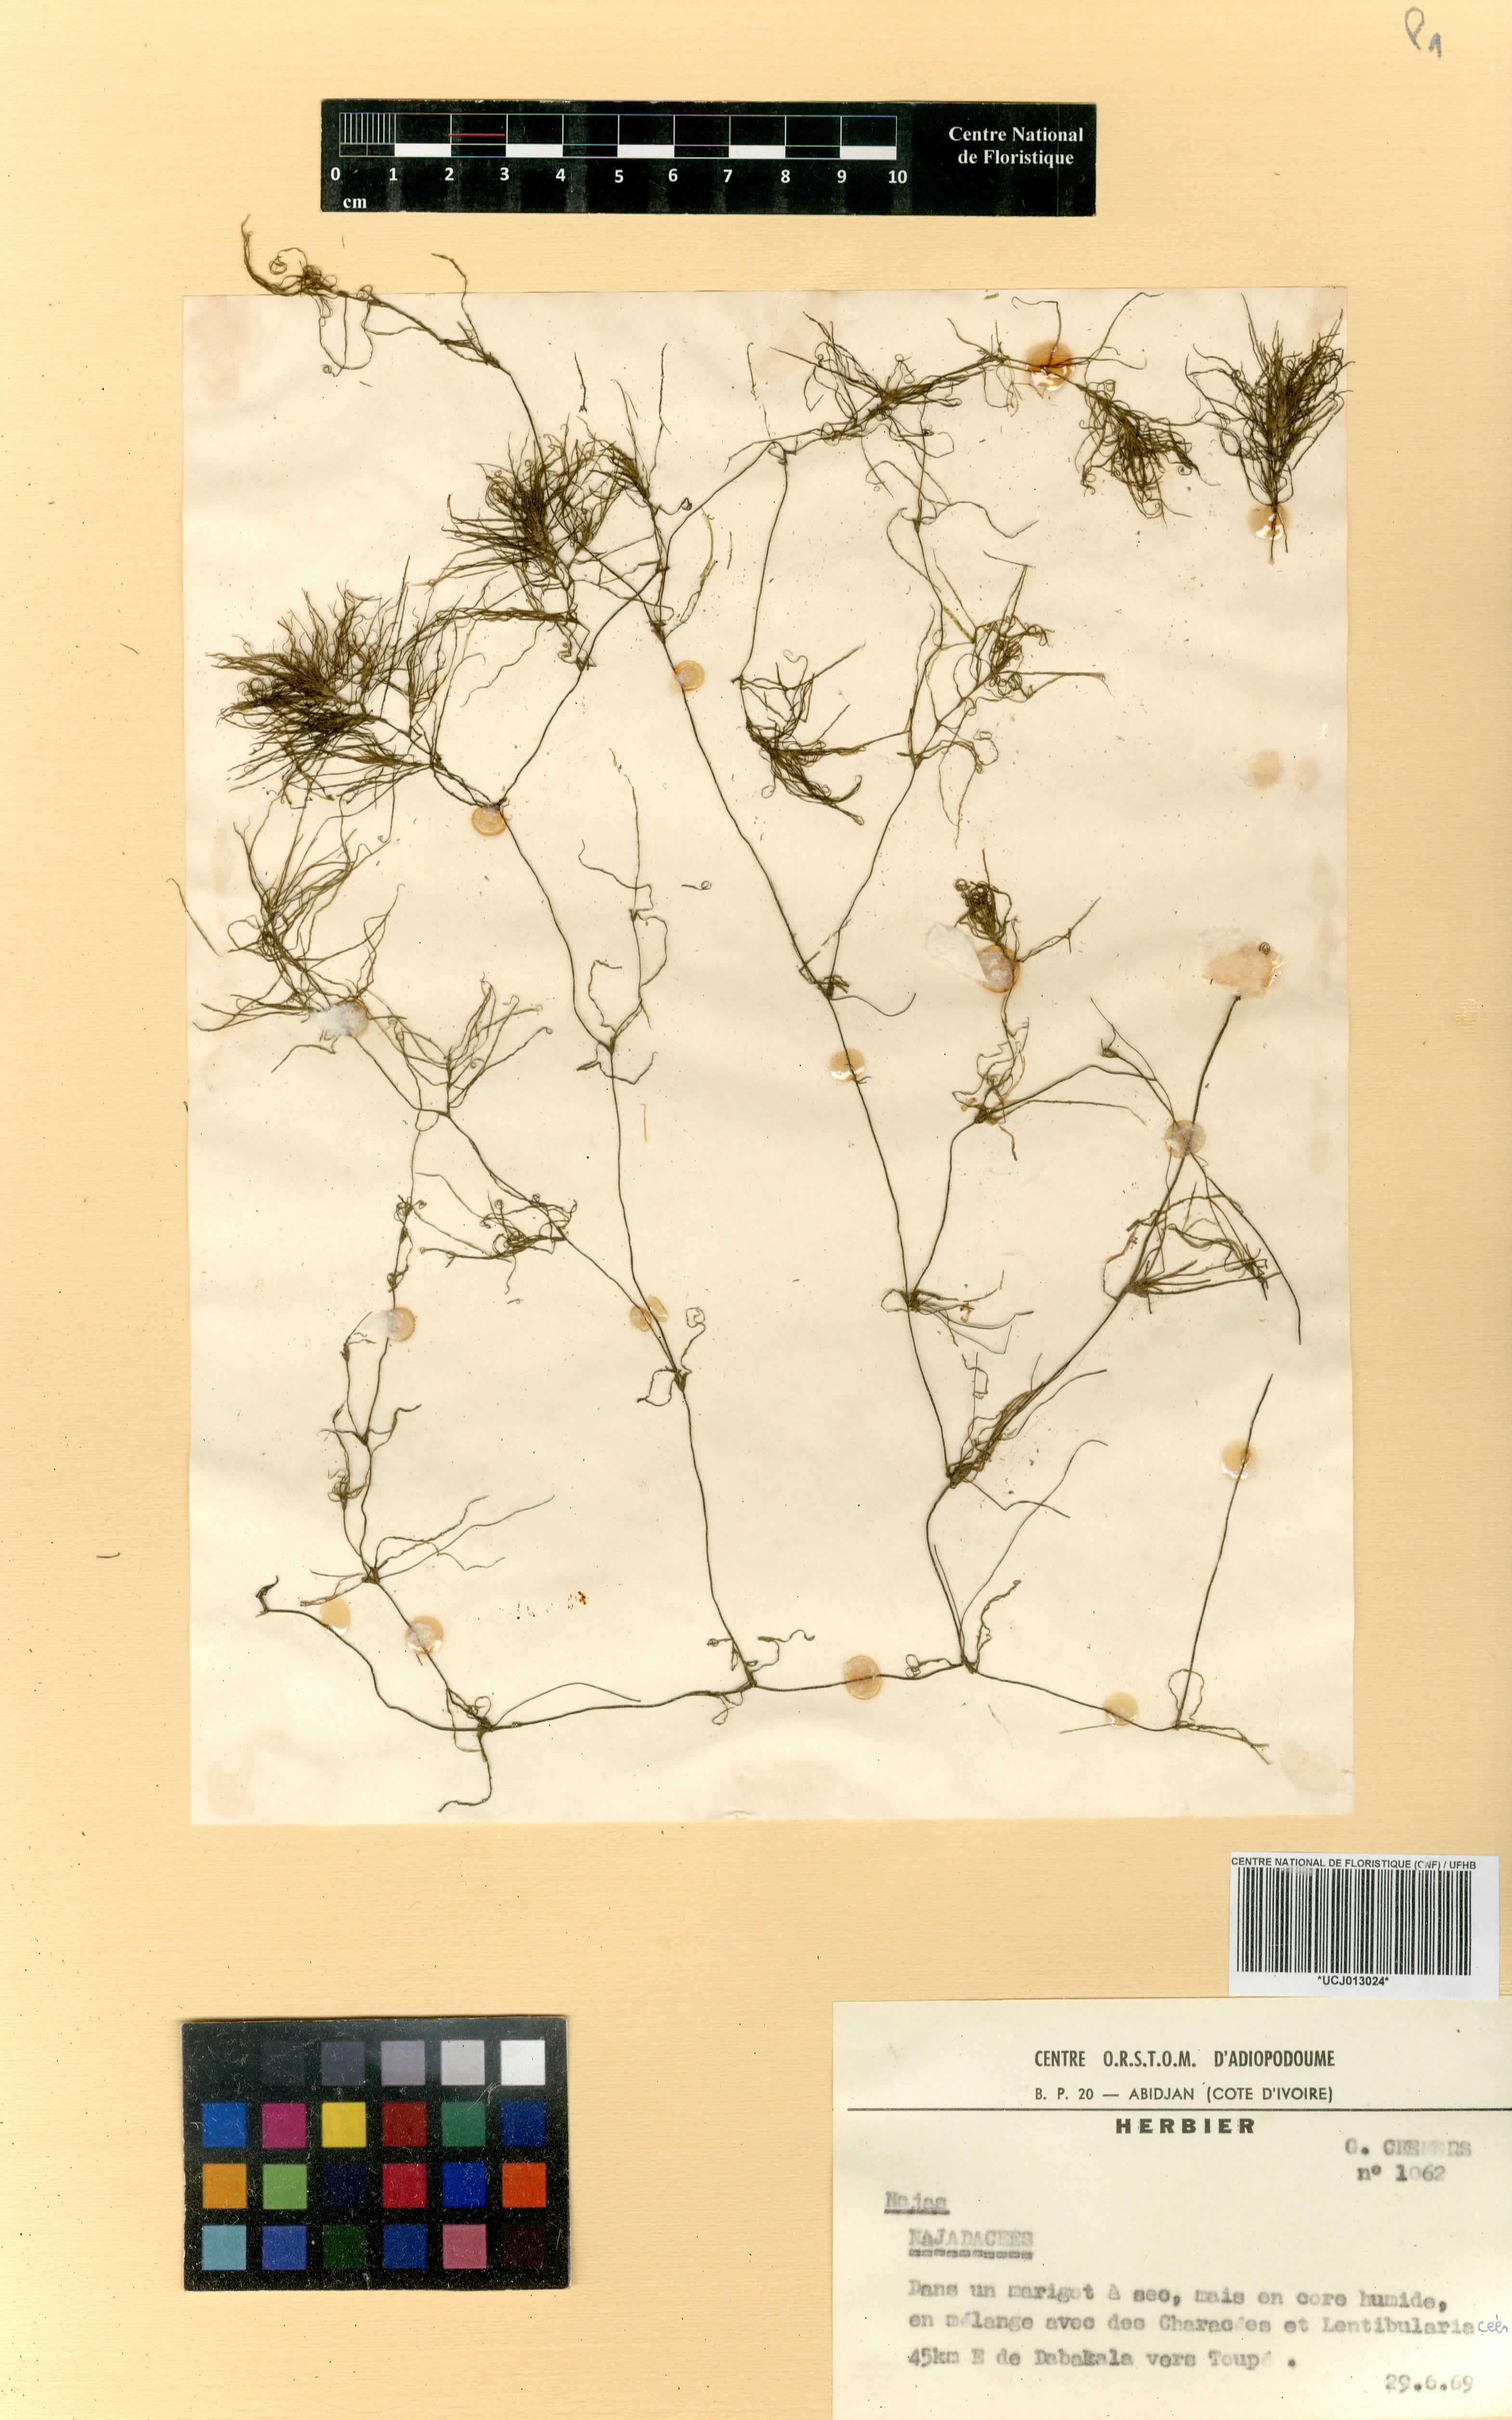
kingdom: Plantae
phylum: Tracheophyta
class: Liliopsida
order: Alismatales
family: Hydrocharitaceae
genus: Najas
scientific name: Najas pectinata
